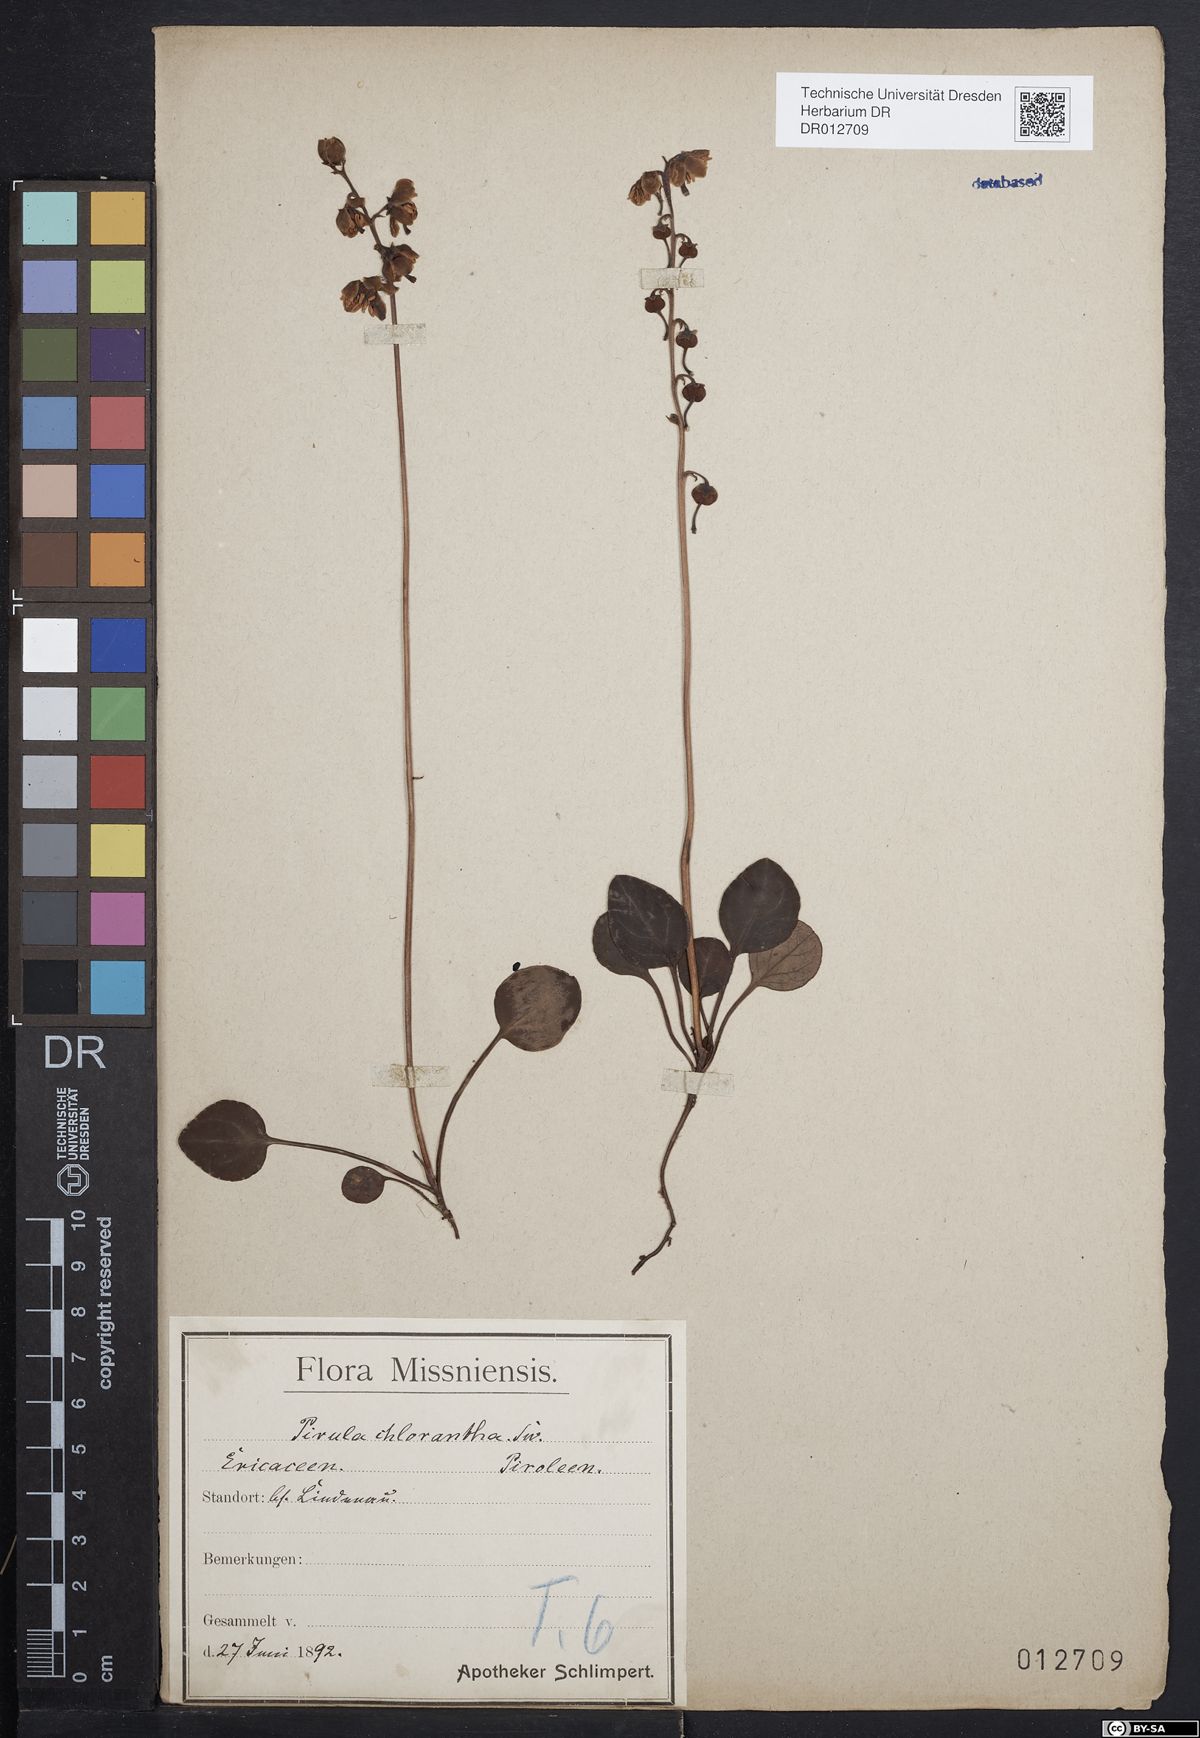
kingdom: Plantae
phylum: Tracheophyta
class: Magnoliopsida
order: Ericales
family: Ericaceae
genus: Pyrola
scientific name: Pyrola chlorantha
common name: Green wintergreen
